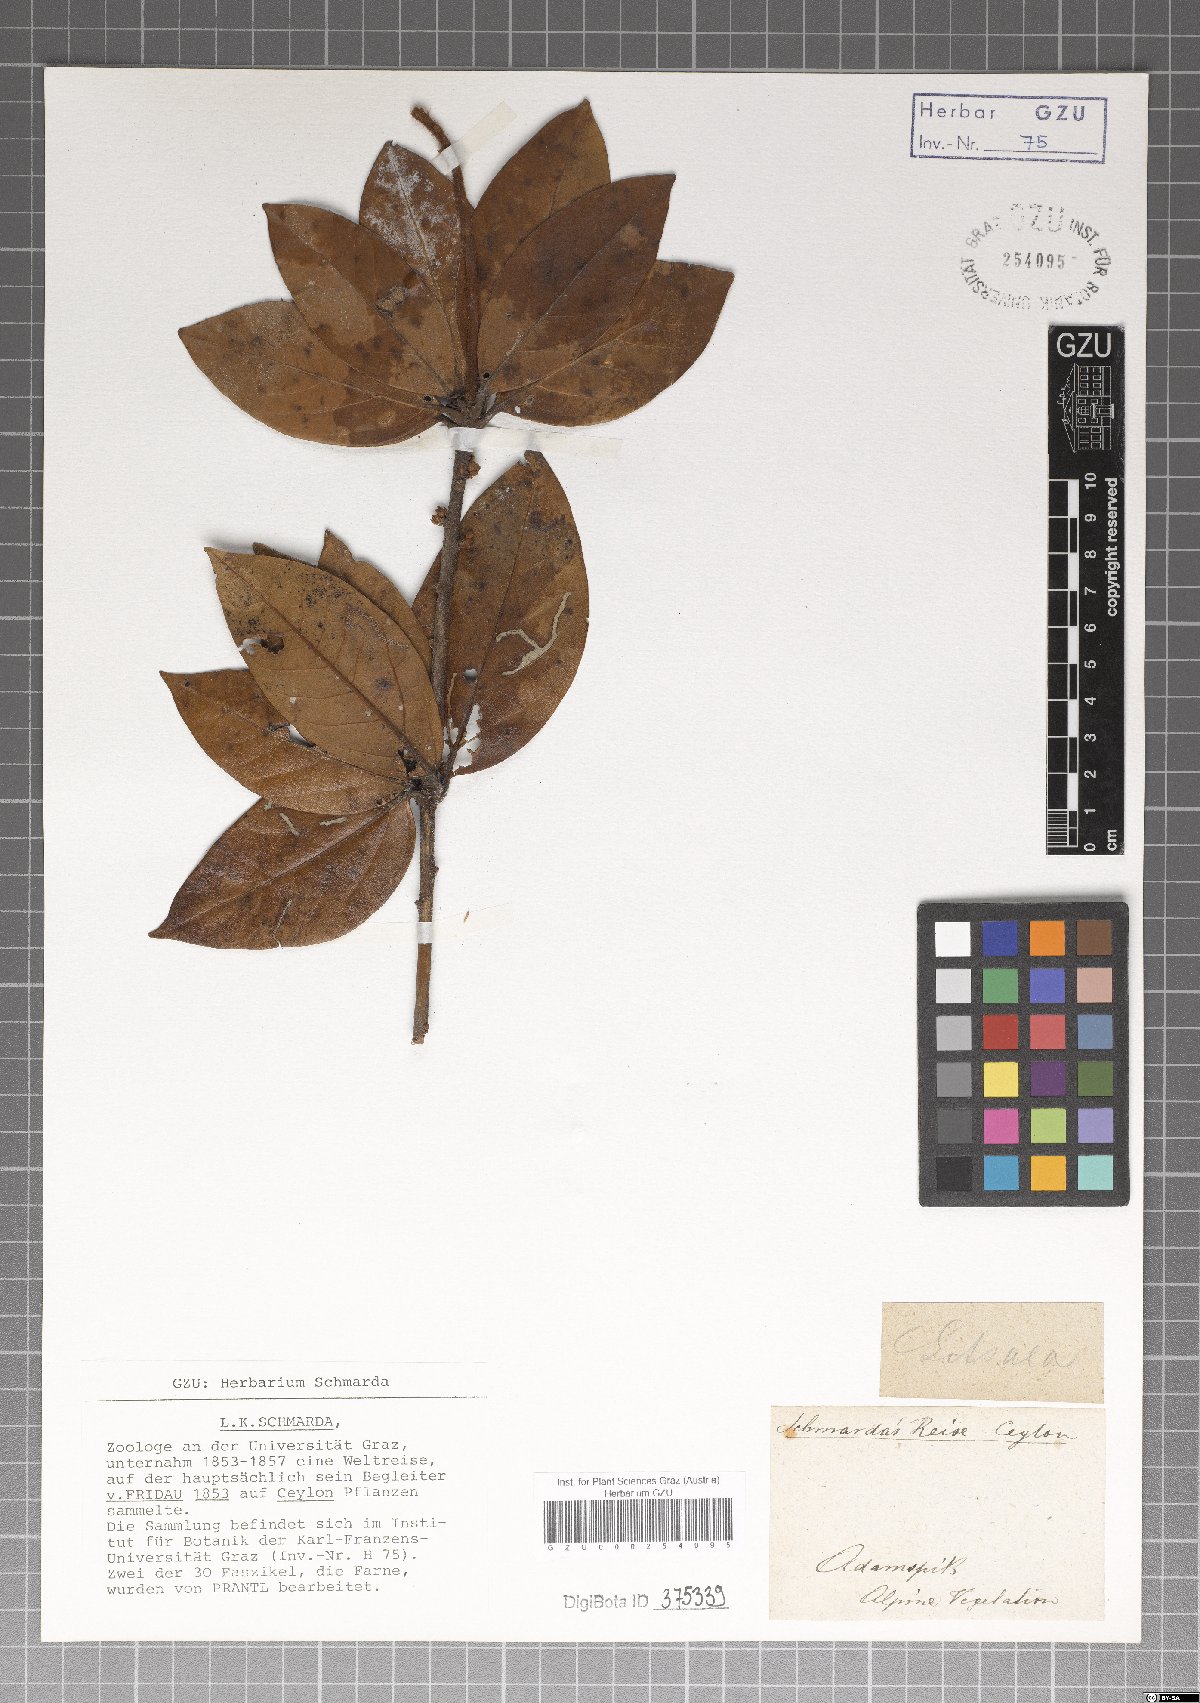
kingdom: Plantae
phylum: Tracheophyta
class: Magnoliopsida
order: Laurales
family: Lauraceae
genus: Litsea
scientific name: Litsea
